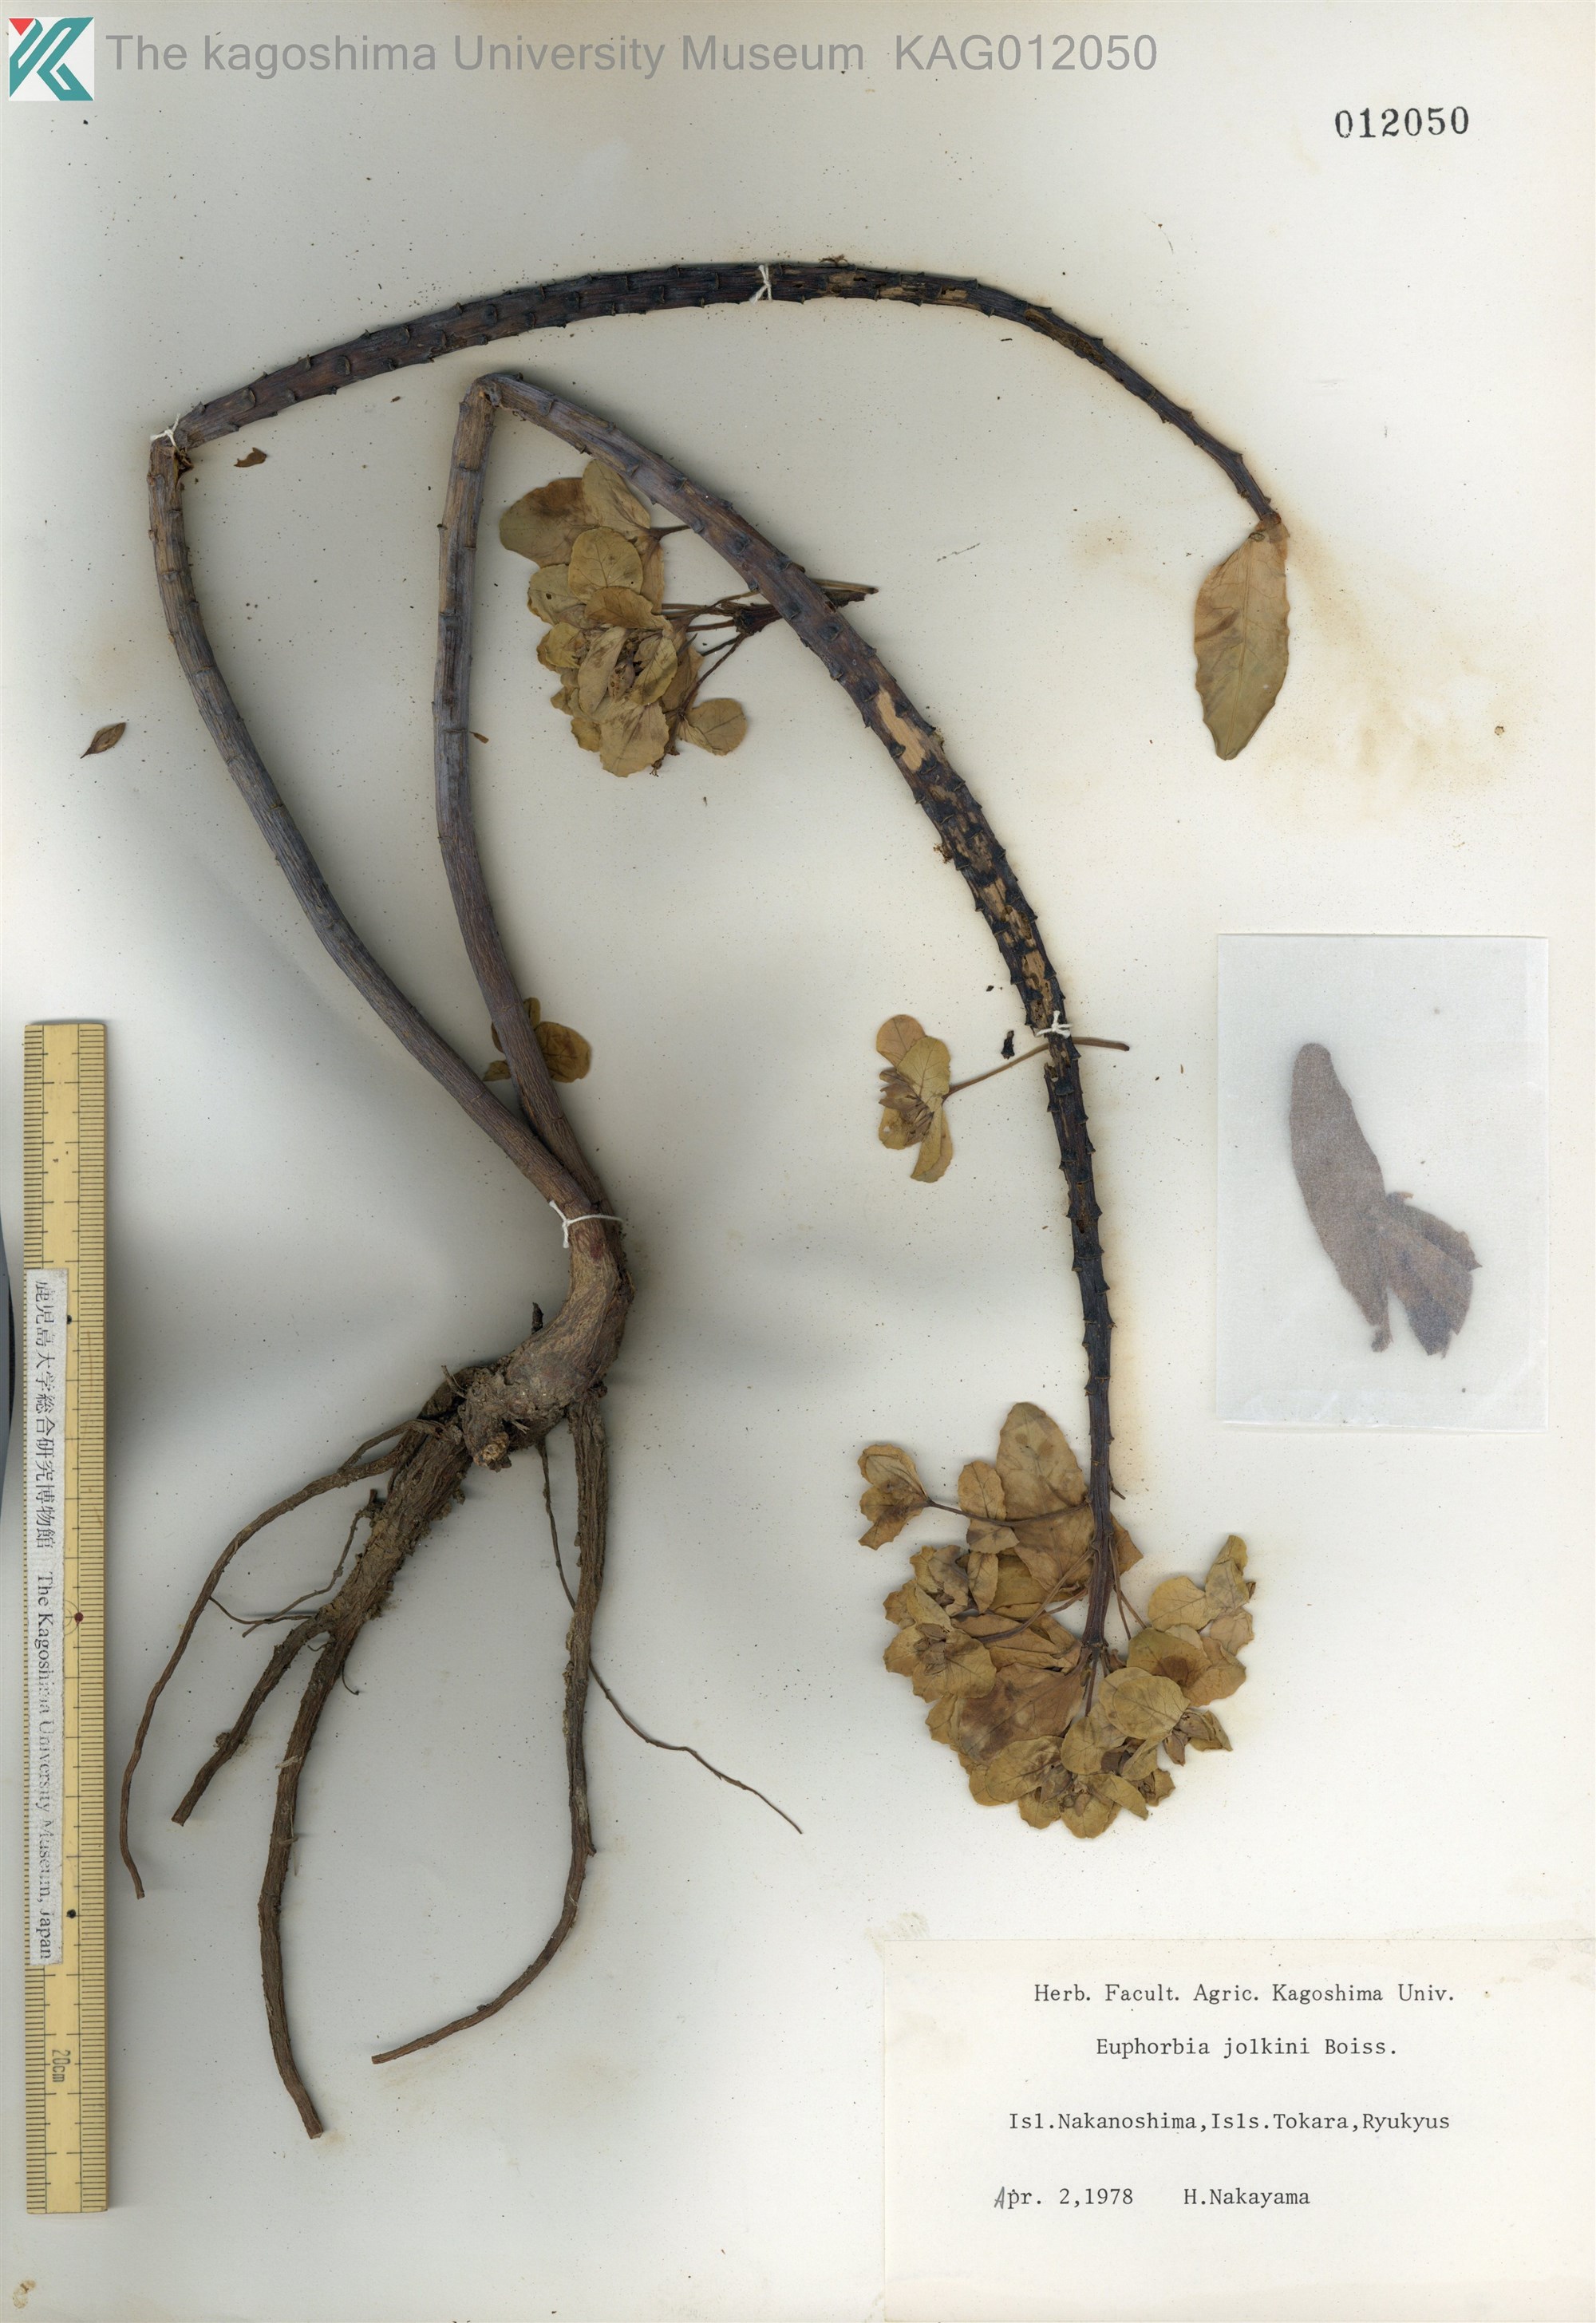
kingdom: Plantae
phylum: Tracheophyta
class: Magnoliopsida
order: Malpighiales
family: Euphorbiaceae
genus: Euphorbia
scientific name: Euphorbia jolkinii
